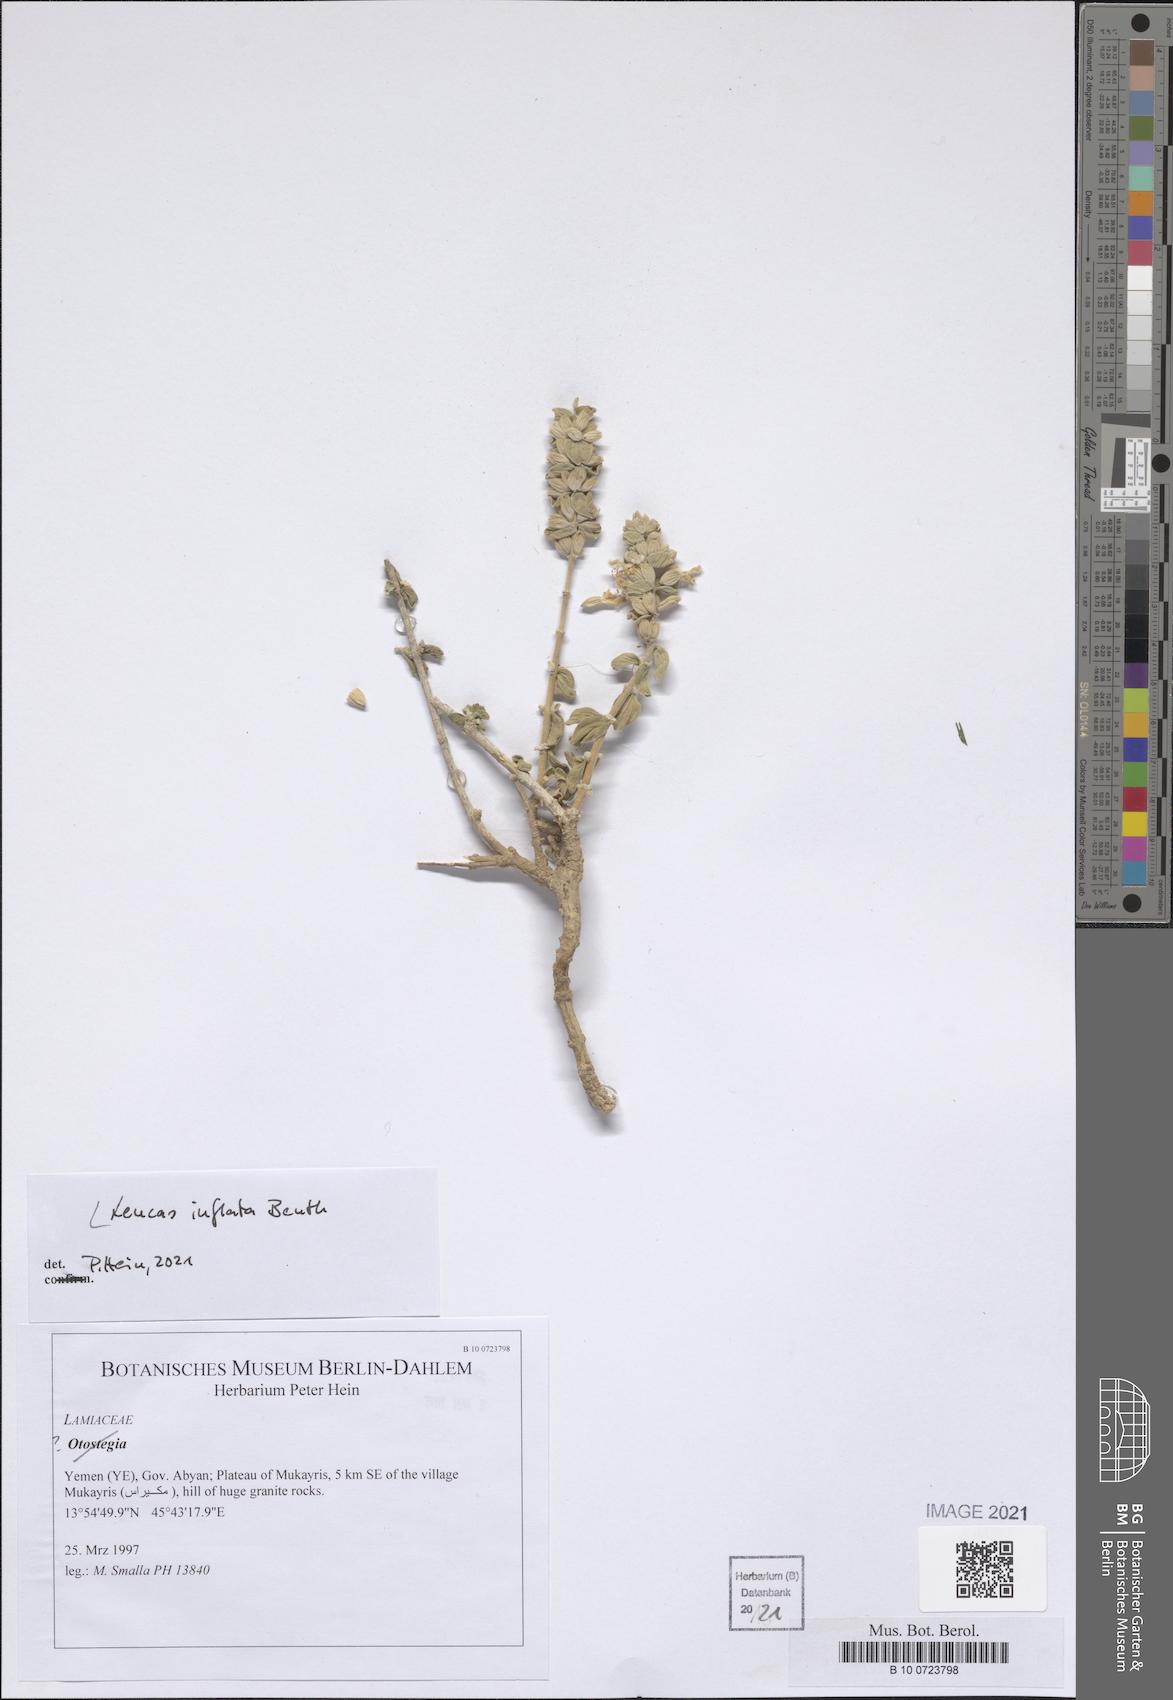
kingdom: Plantae
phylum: Tracheophyta
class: Magnoliopsida
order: Lamiales
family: Lamiaceae
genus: Leucas
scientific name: Leucas inflata
